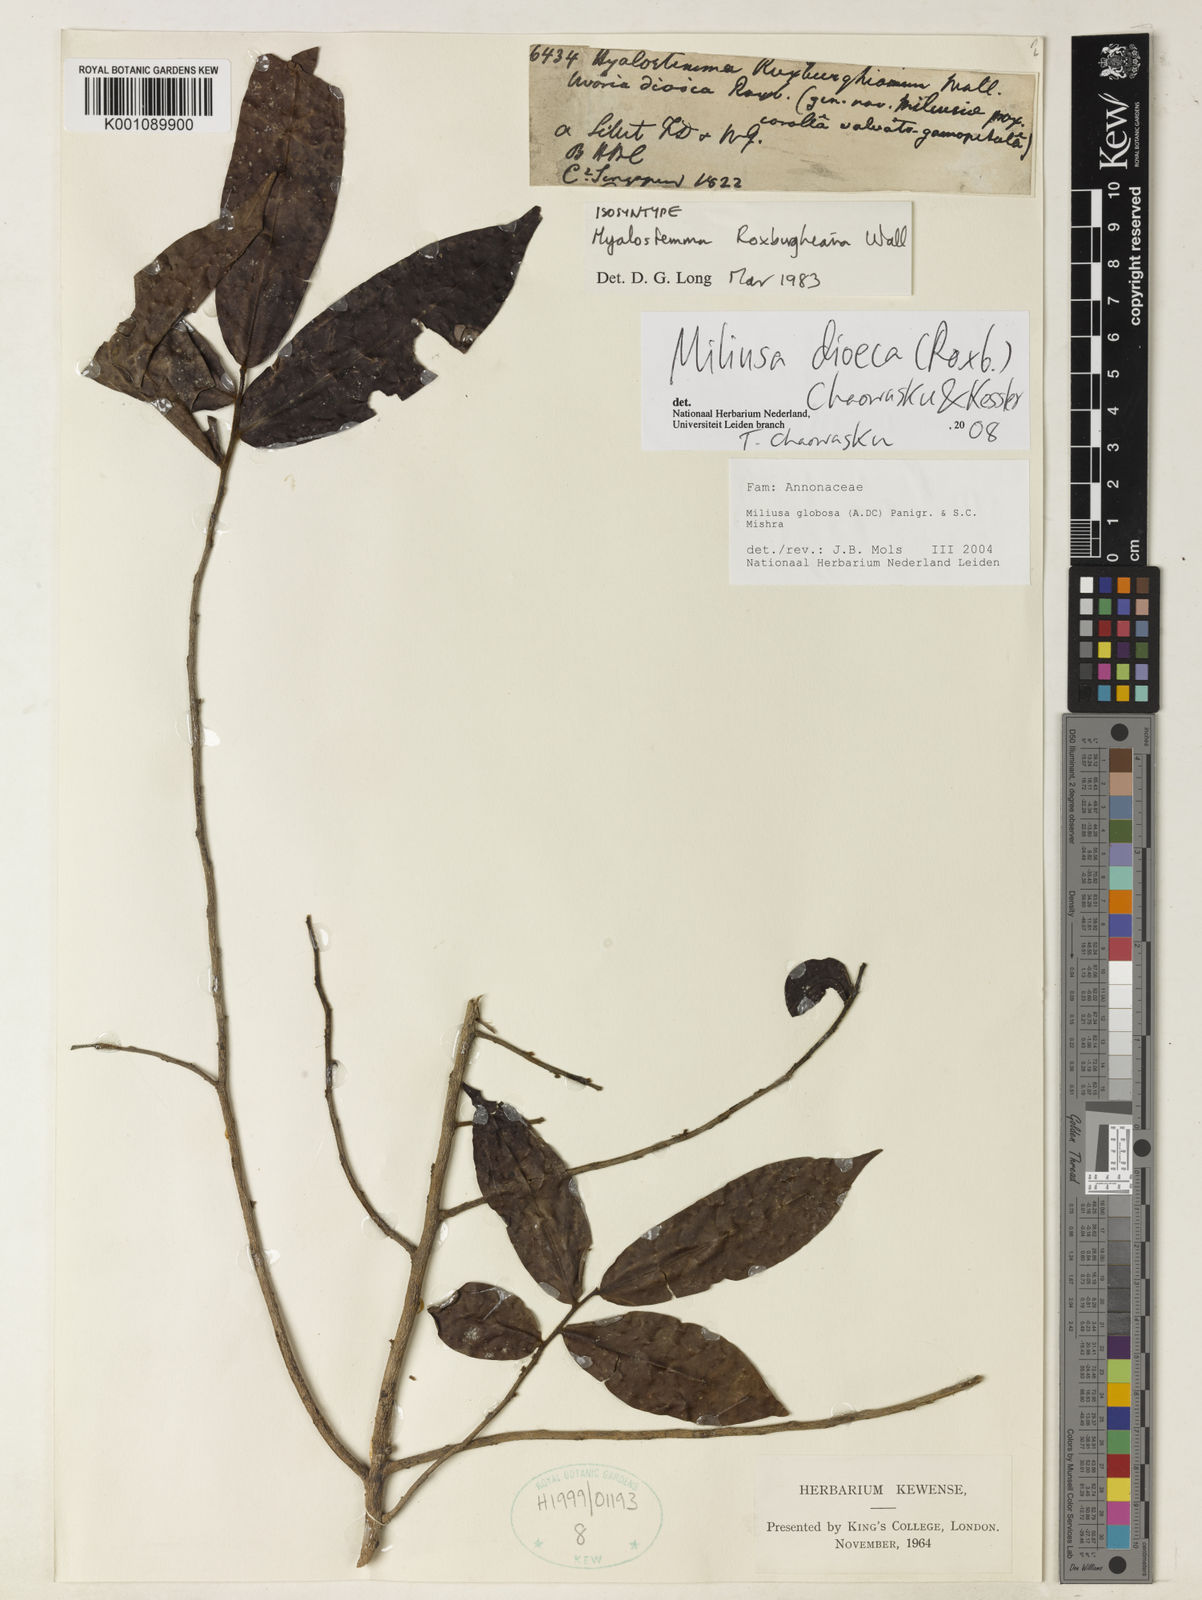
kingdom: Plantae
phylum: Tracheophyta
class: Magnoliopsida
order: Magnoliales
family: Annonaceae
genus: Hyalostemma
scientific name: Hyalostemma
